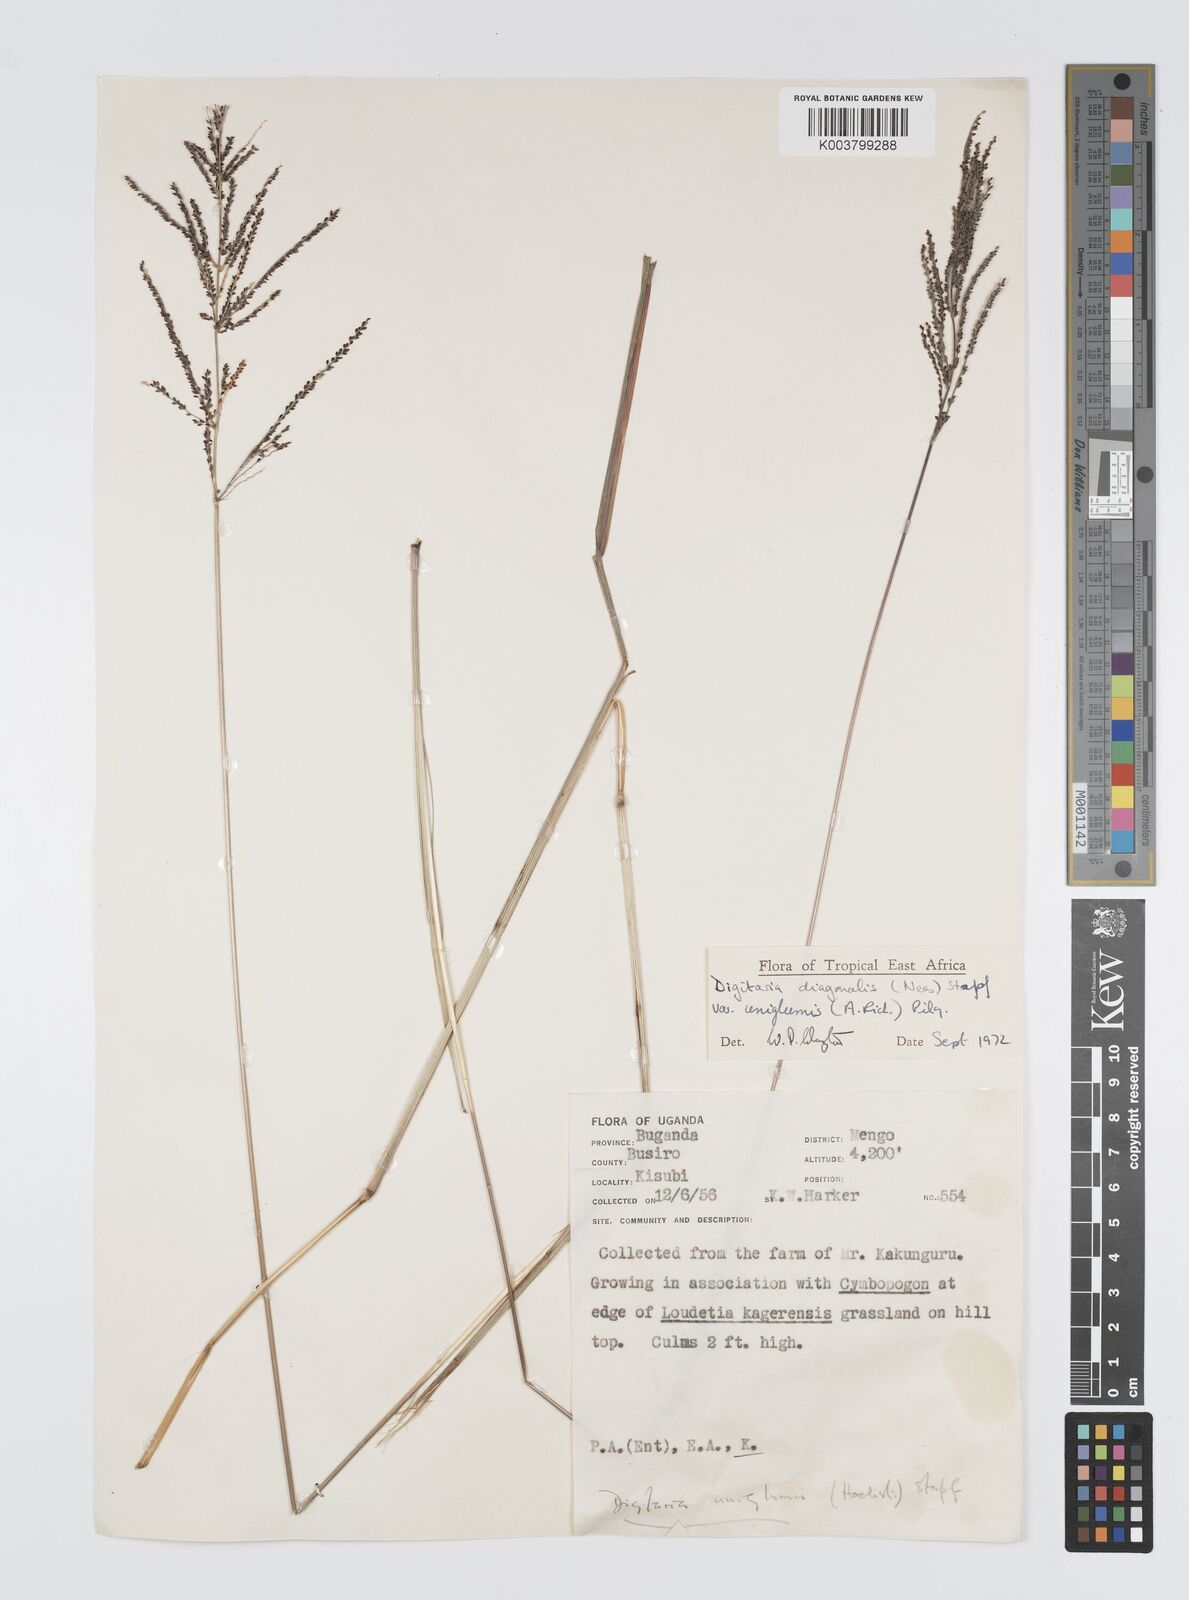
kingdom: Plantae
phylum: Tracheophyta
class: Liliopsida
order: Poales
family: Poaceae
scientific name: Poaceae
